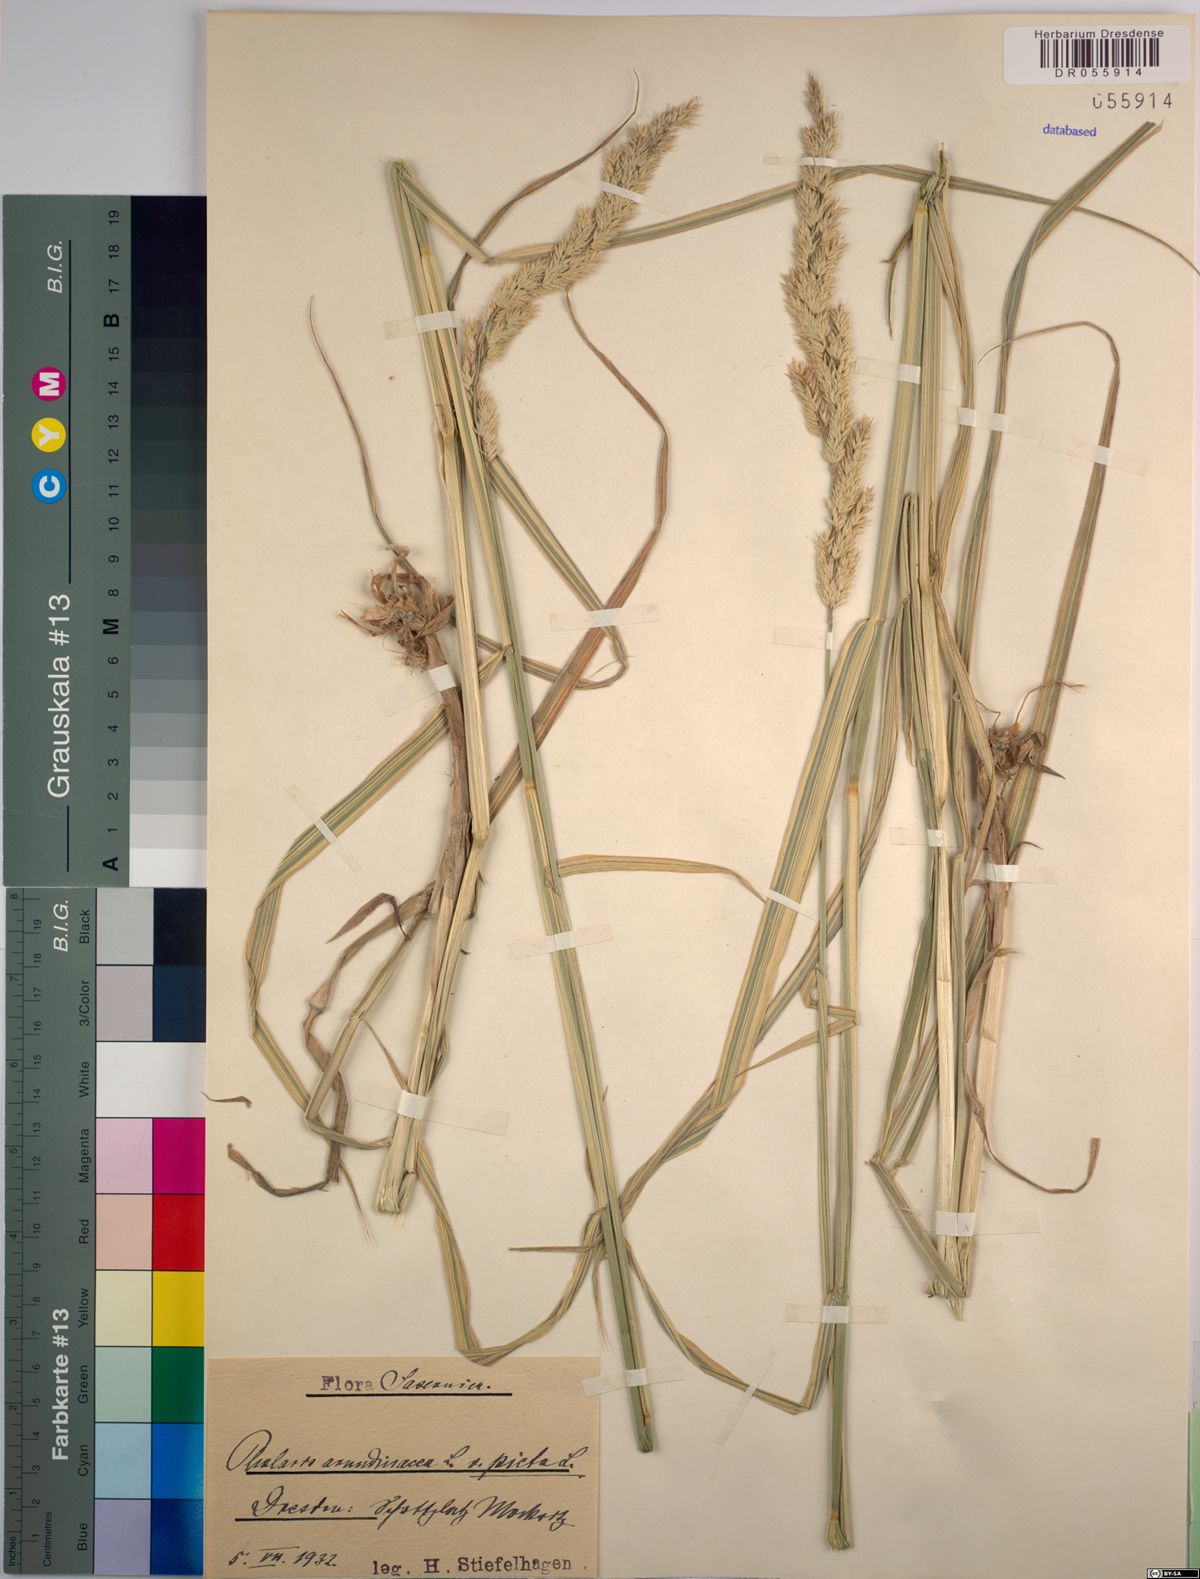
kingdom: Plantae
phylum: Tracheophyta
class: Liliopsida
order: Poales
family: Poaceae
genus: Phalaris
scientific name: Phalaris arundinacea
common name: Reed canary-grass
